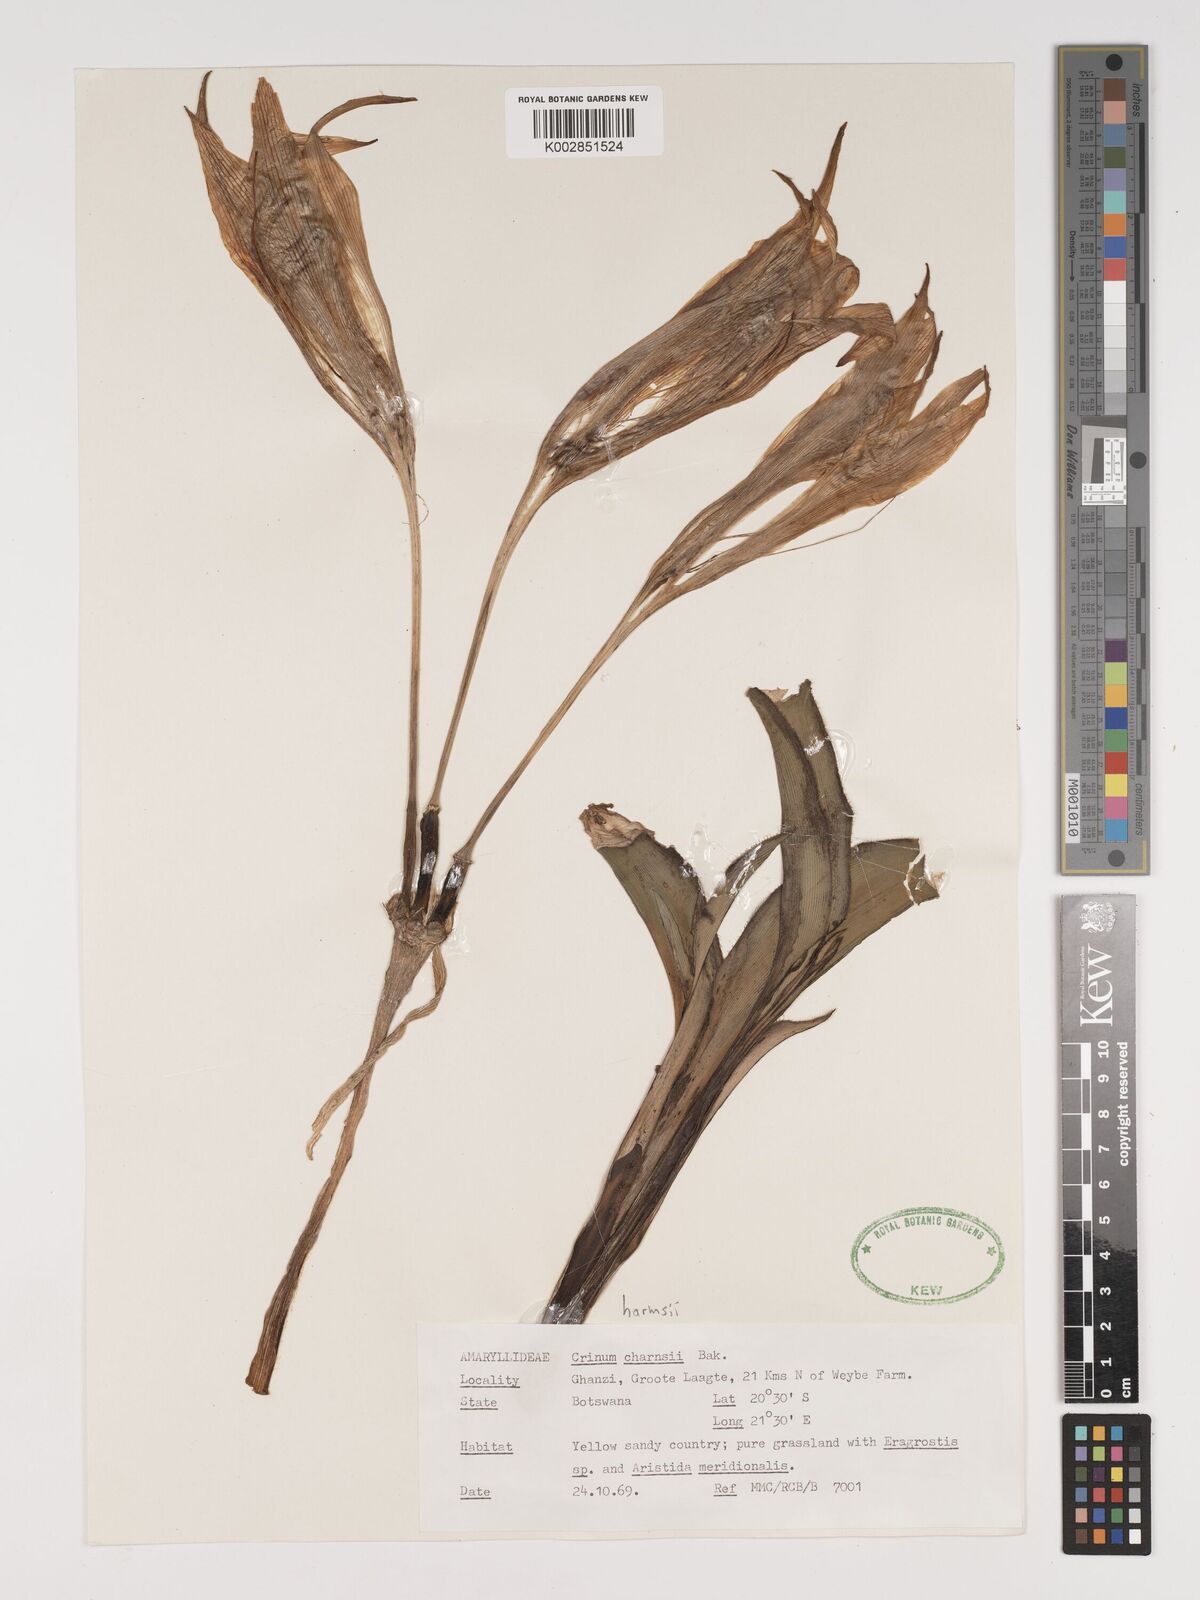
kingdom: Plantae
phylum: Tracheophyta
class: Liliopsida
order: Asparagales
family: Amaryllidaceae
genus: Crinum
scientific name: Crinum crassicaule
